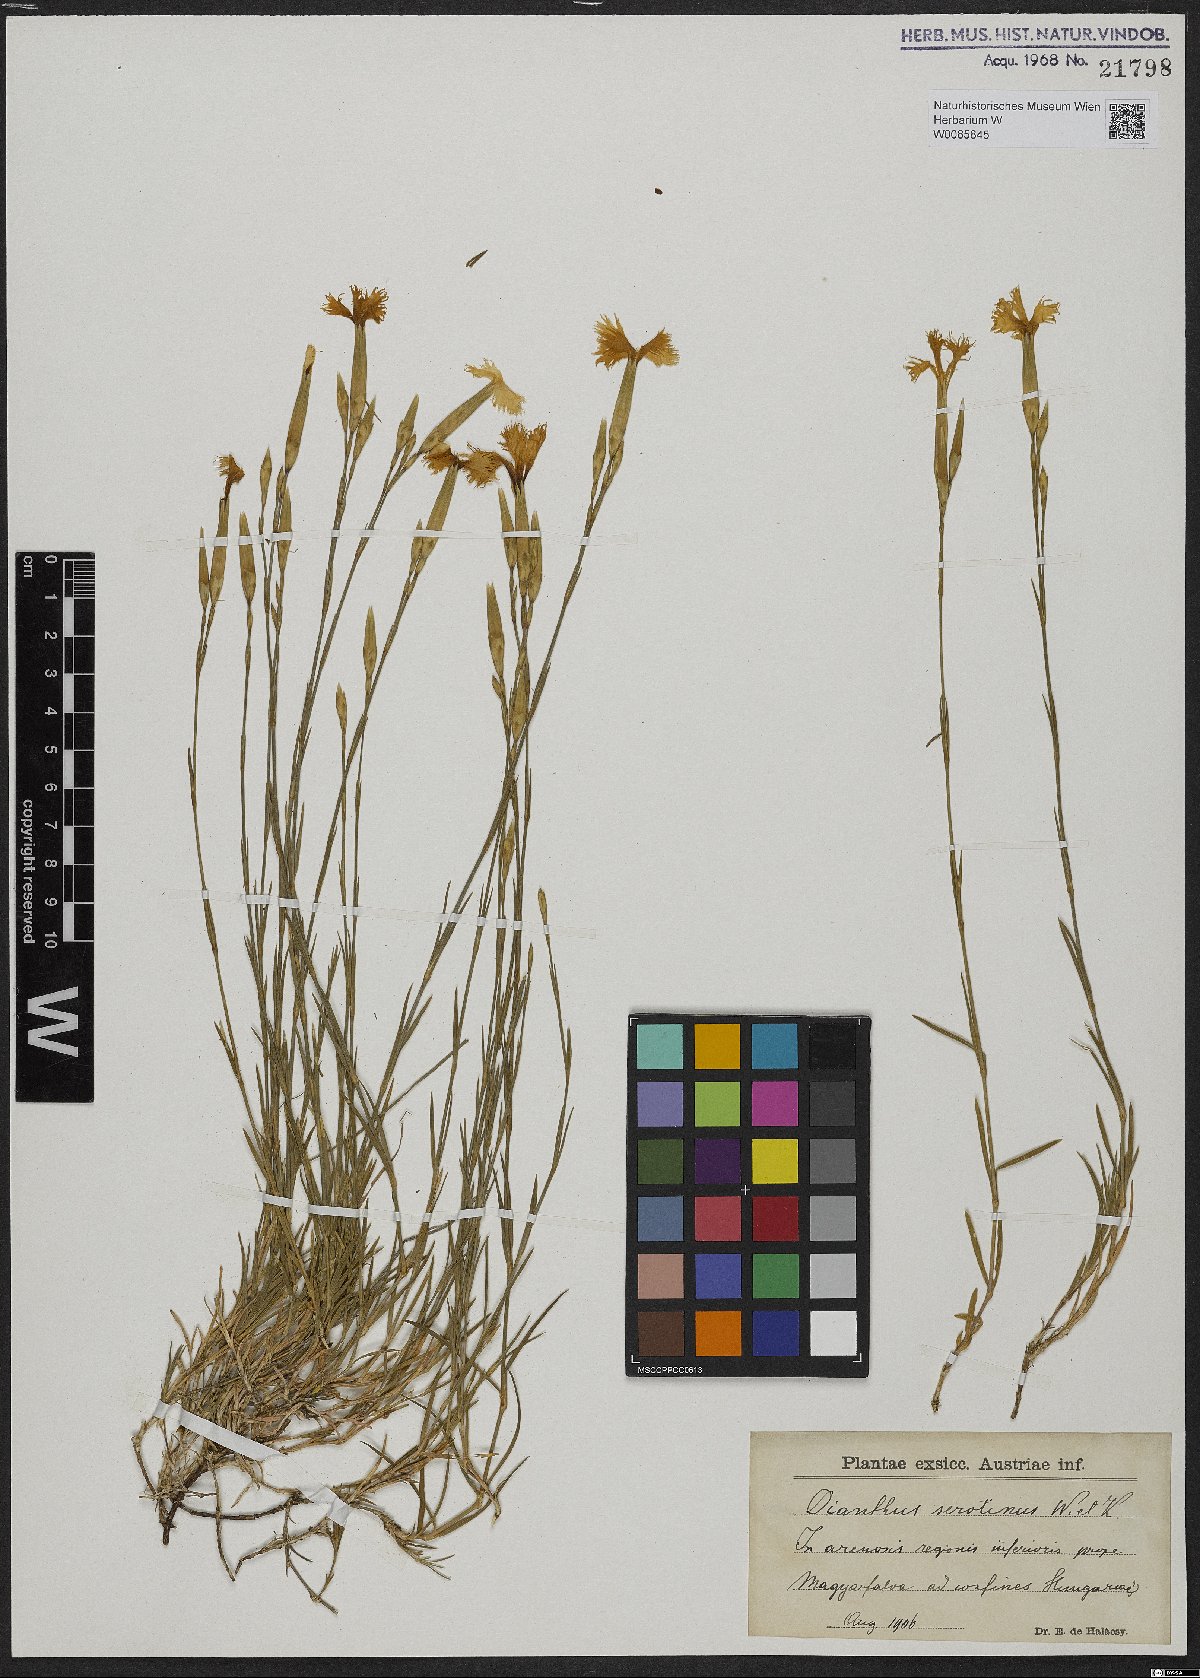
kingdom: Plantae
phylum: Tracheophyta
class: Magnoliopsida
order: Caryophyllales
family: Caryophyllaceae
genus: Dianthus
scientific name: Dianthus serotinus
